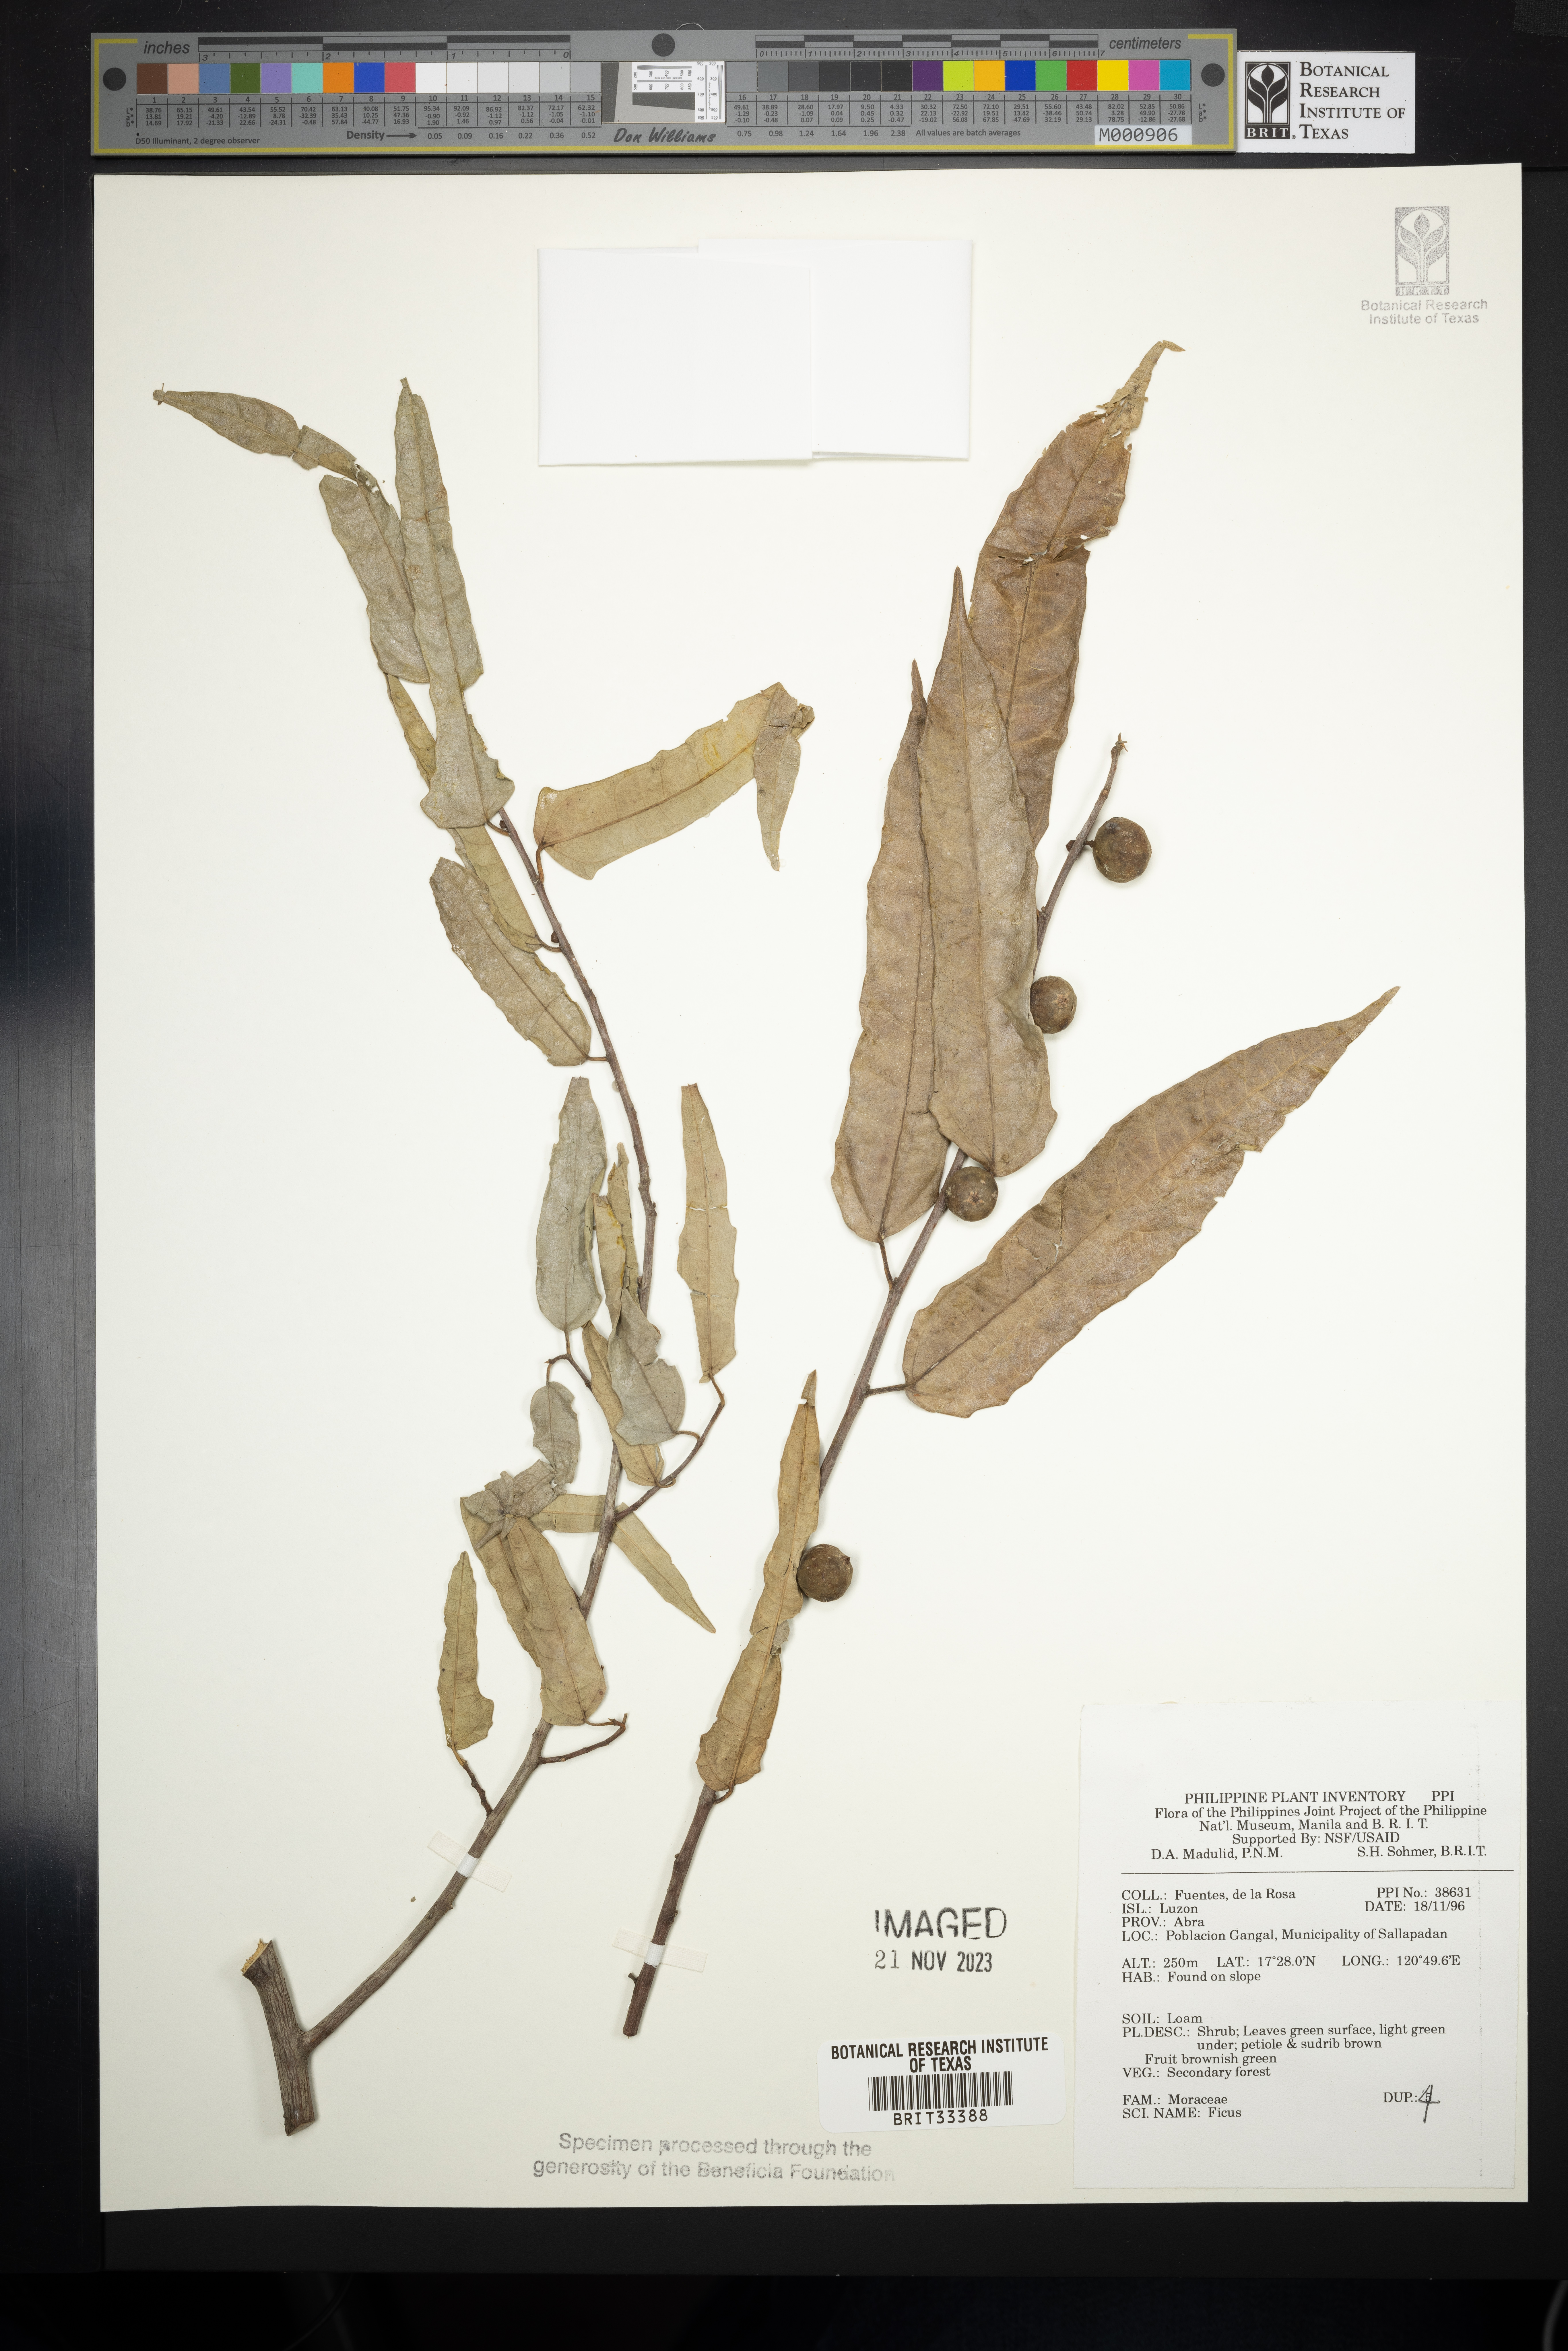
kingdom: Plantae
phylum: Tracheophyta
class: Magnoliopsida
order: Rosales
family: Moraceae
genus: Ficus
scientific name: Ficus
